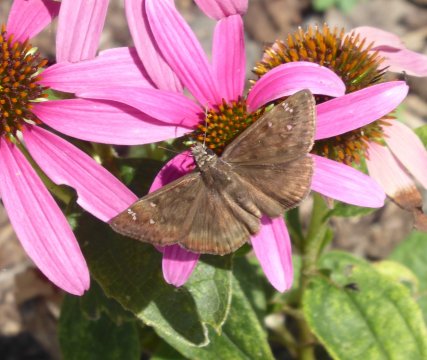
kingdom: Animalia
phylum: Arthropoda
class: Insecta
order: Lepidoptera
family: Hesperiidae
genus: Gesta
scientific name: Gesta
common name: Wild Indigo Duskywing
